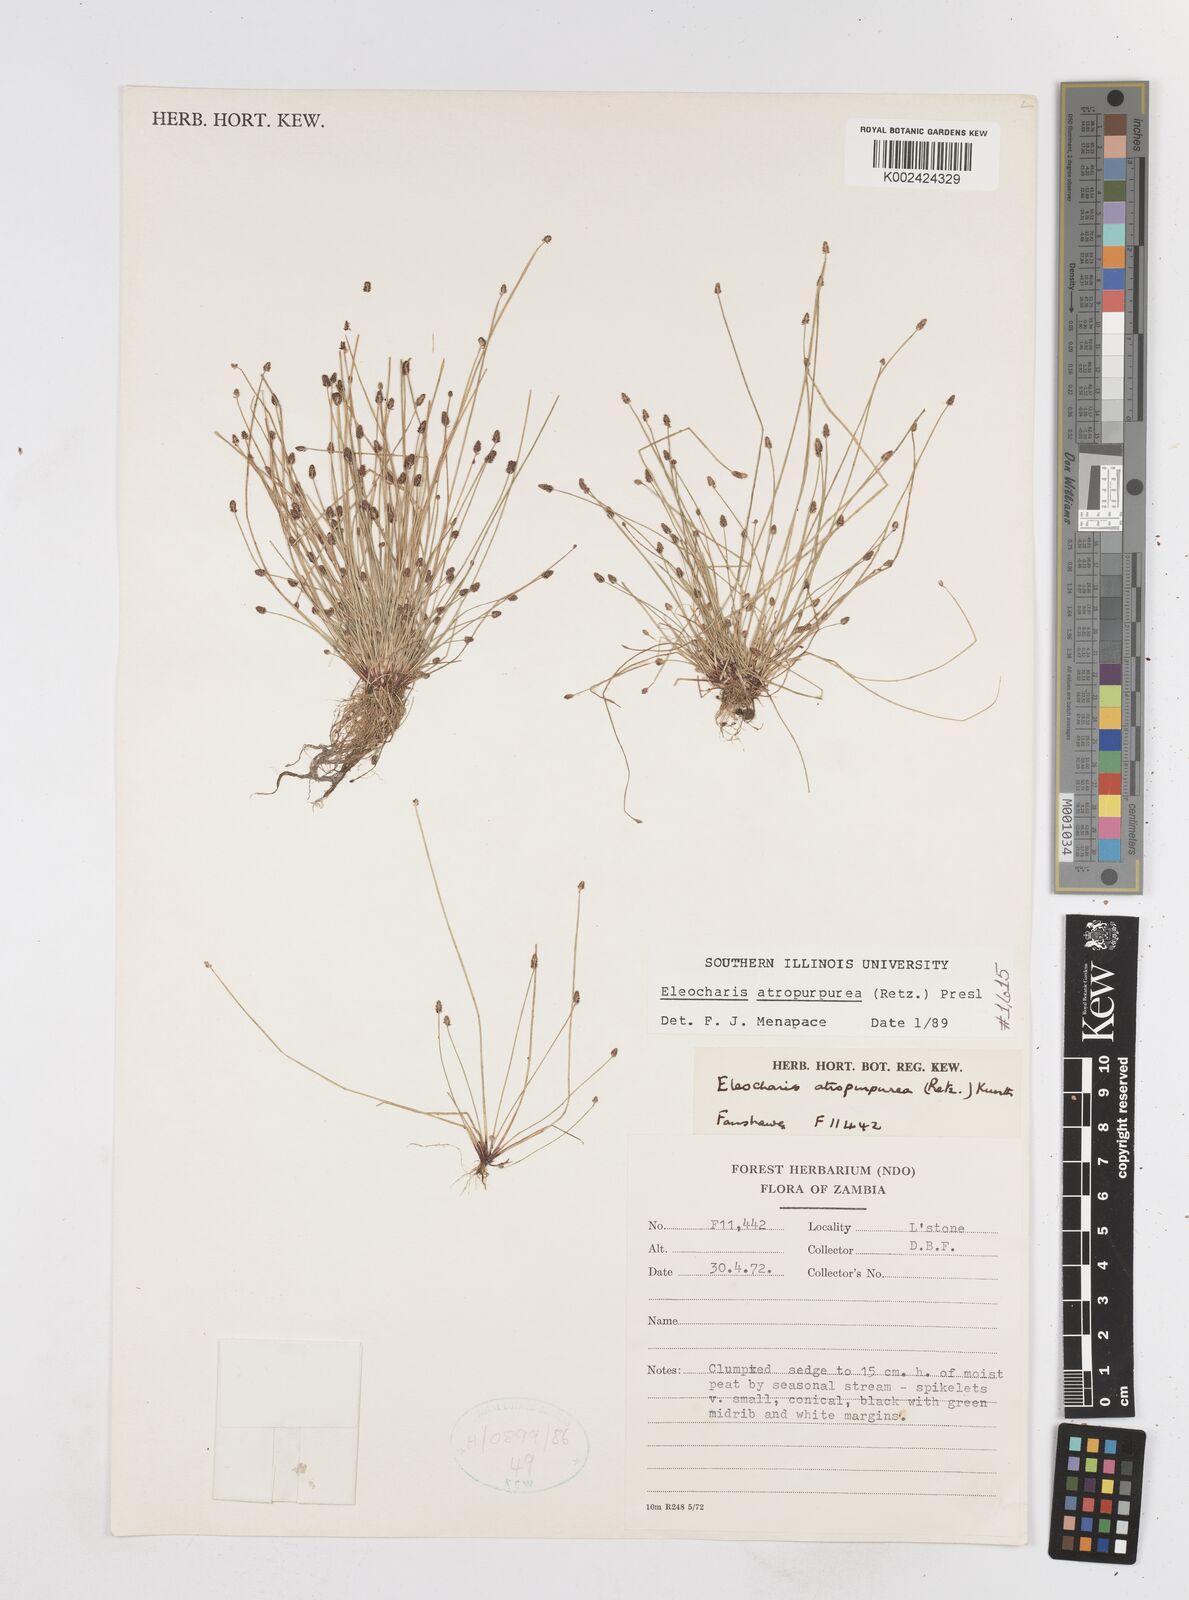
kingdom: Plantae
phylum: Tracheophyta
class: Liliopsida
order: Poales
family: Cyperaceae
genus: Eleocharis
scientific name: Eleocharis atropurpurea
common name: Purple spikerush
